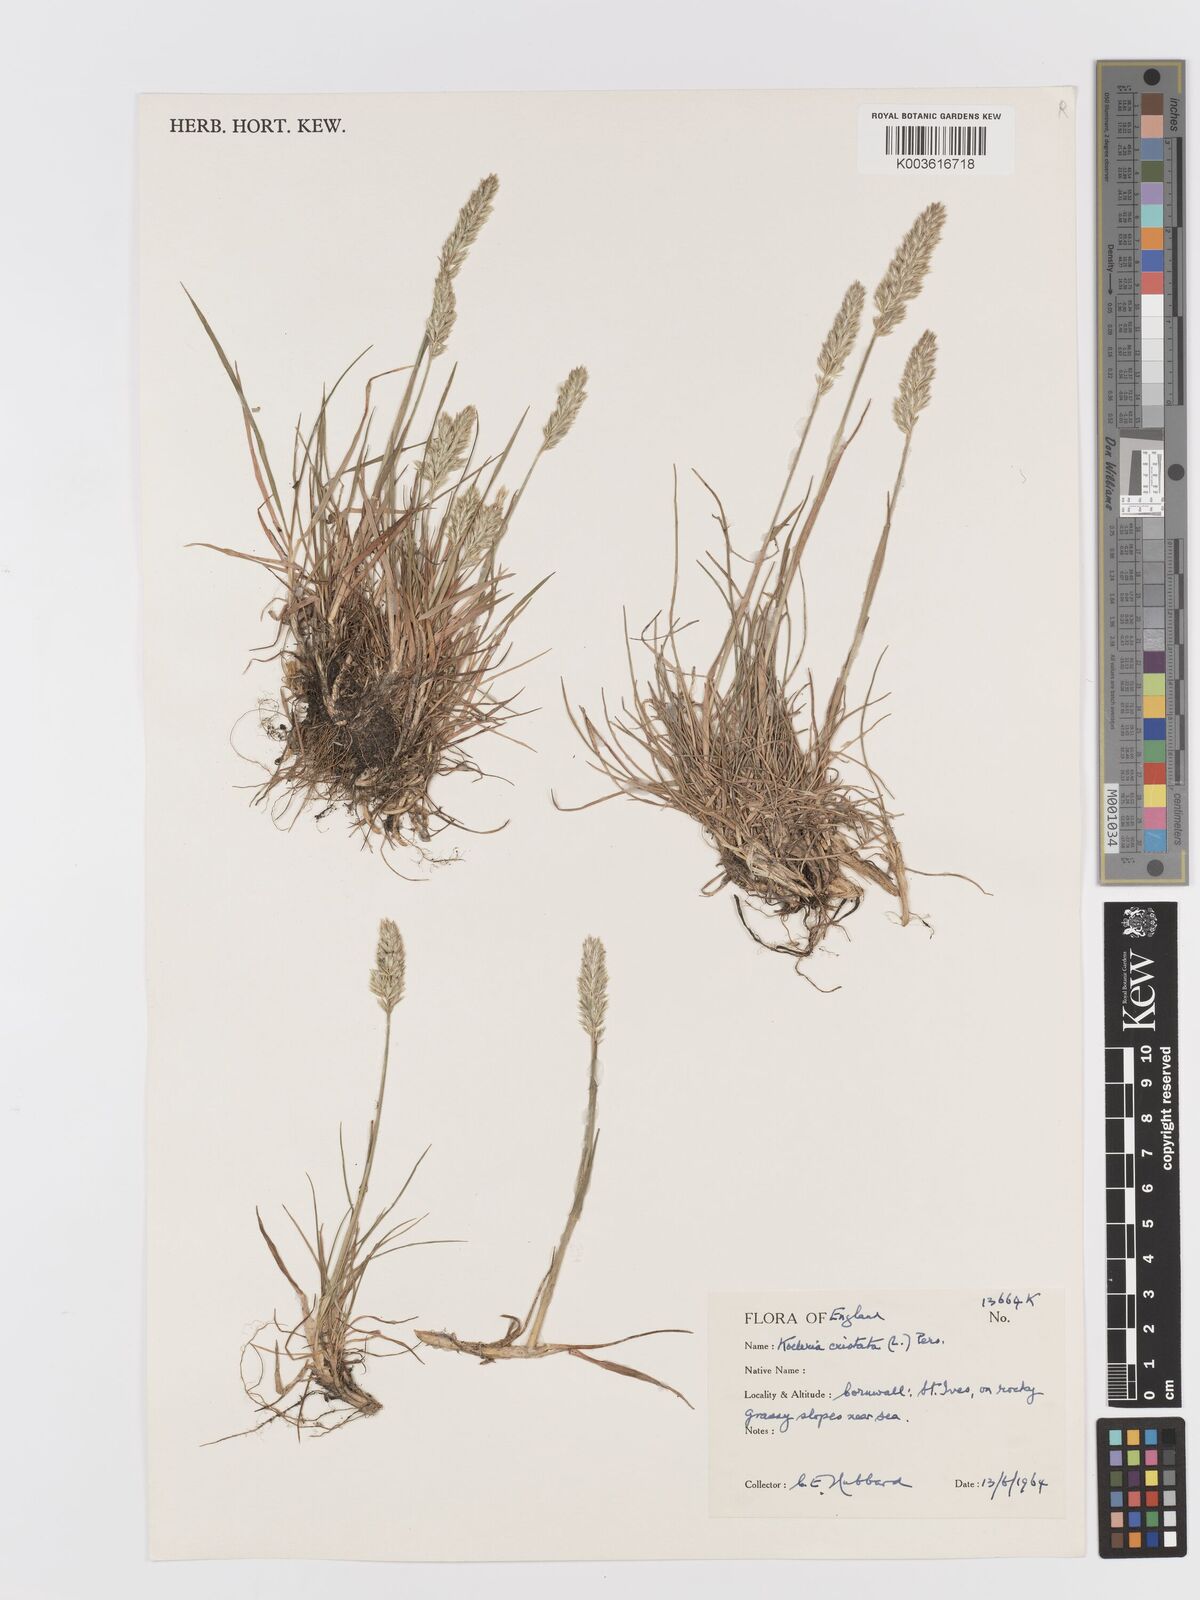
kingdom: Plantae
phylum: Tracheophyta
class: Liliopsida
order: Poales
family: Poaceae
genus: Koeleria
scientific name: Koeleria
